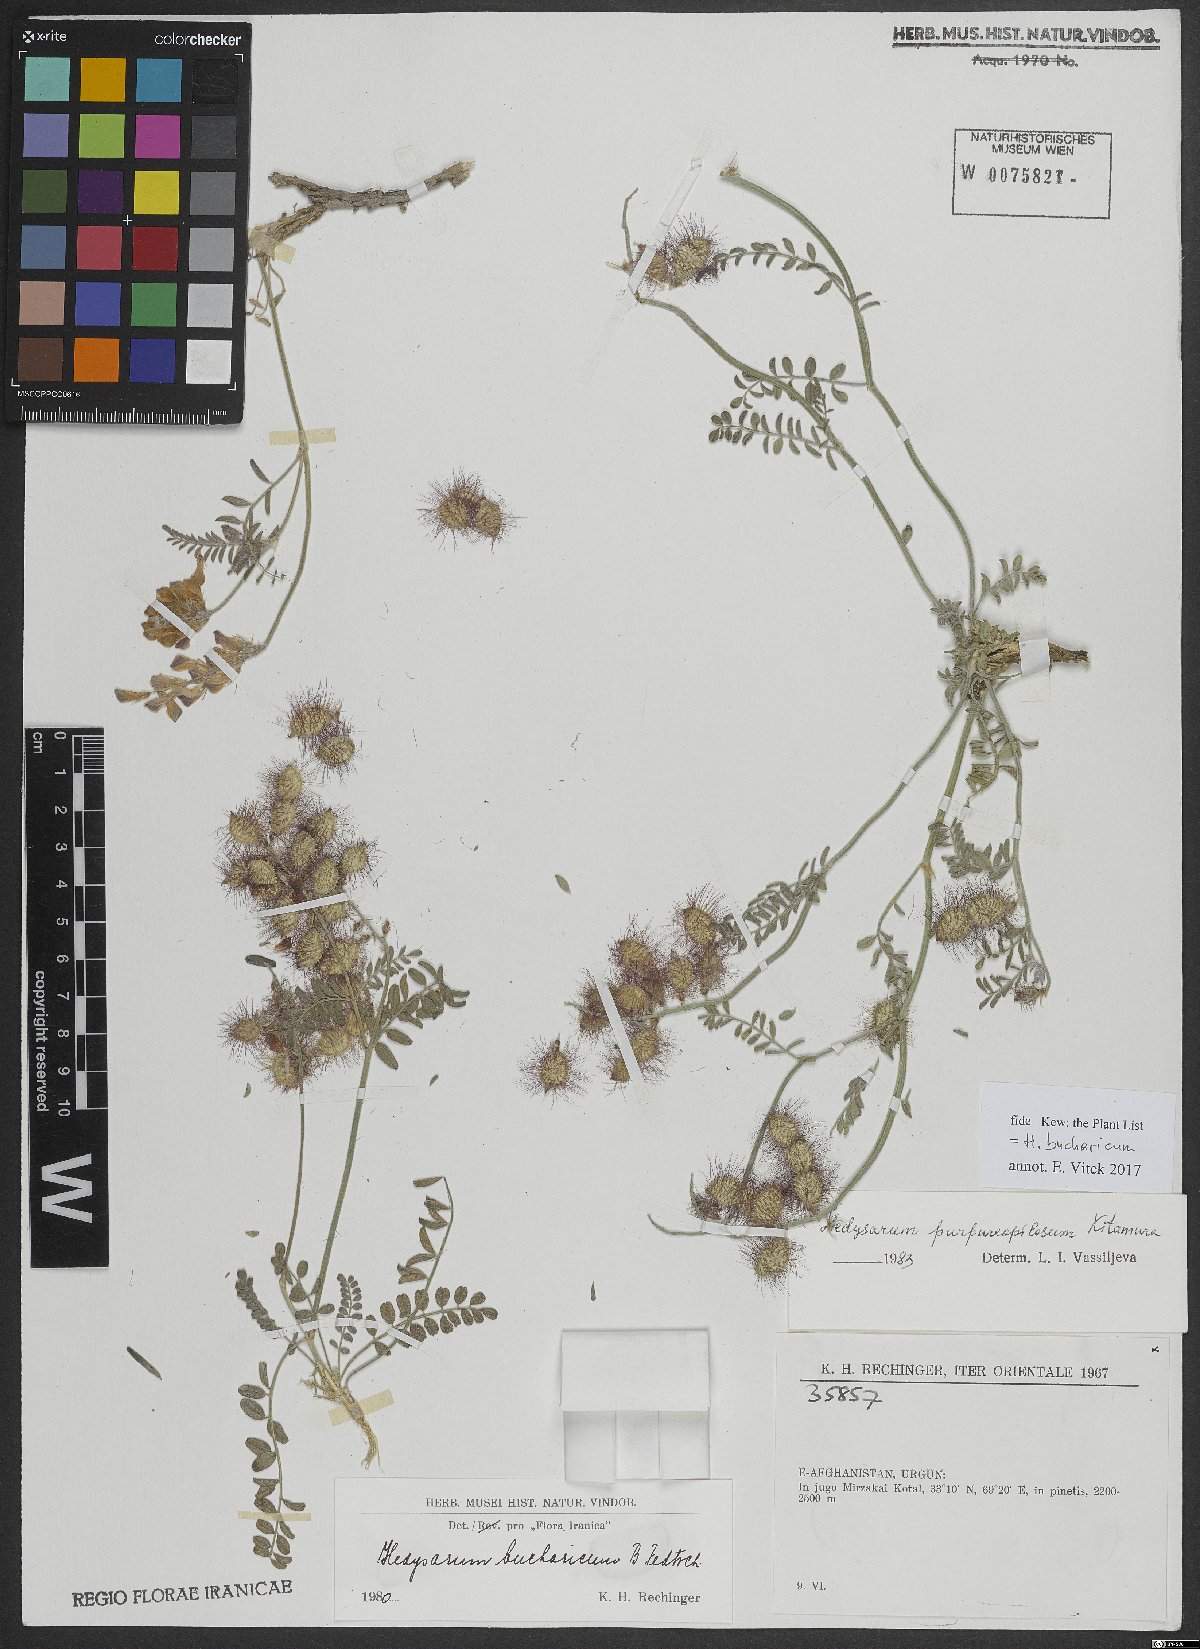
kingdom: Plantae
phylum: Tracheophyta
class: Magnoliopsida
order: Fabales
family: Fabaceae
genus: Hedysarum
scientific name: Hedysarum bucharicum
